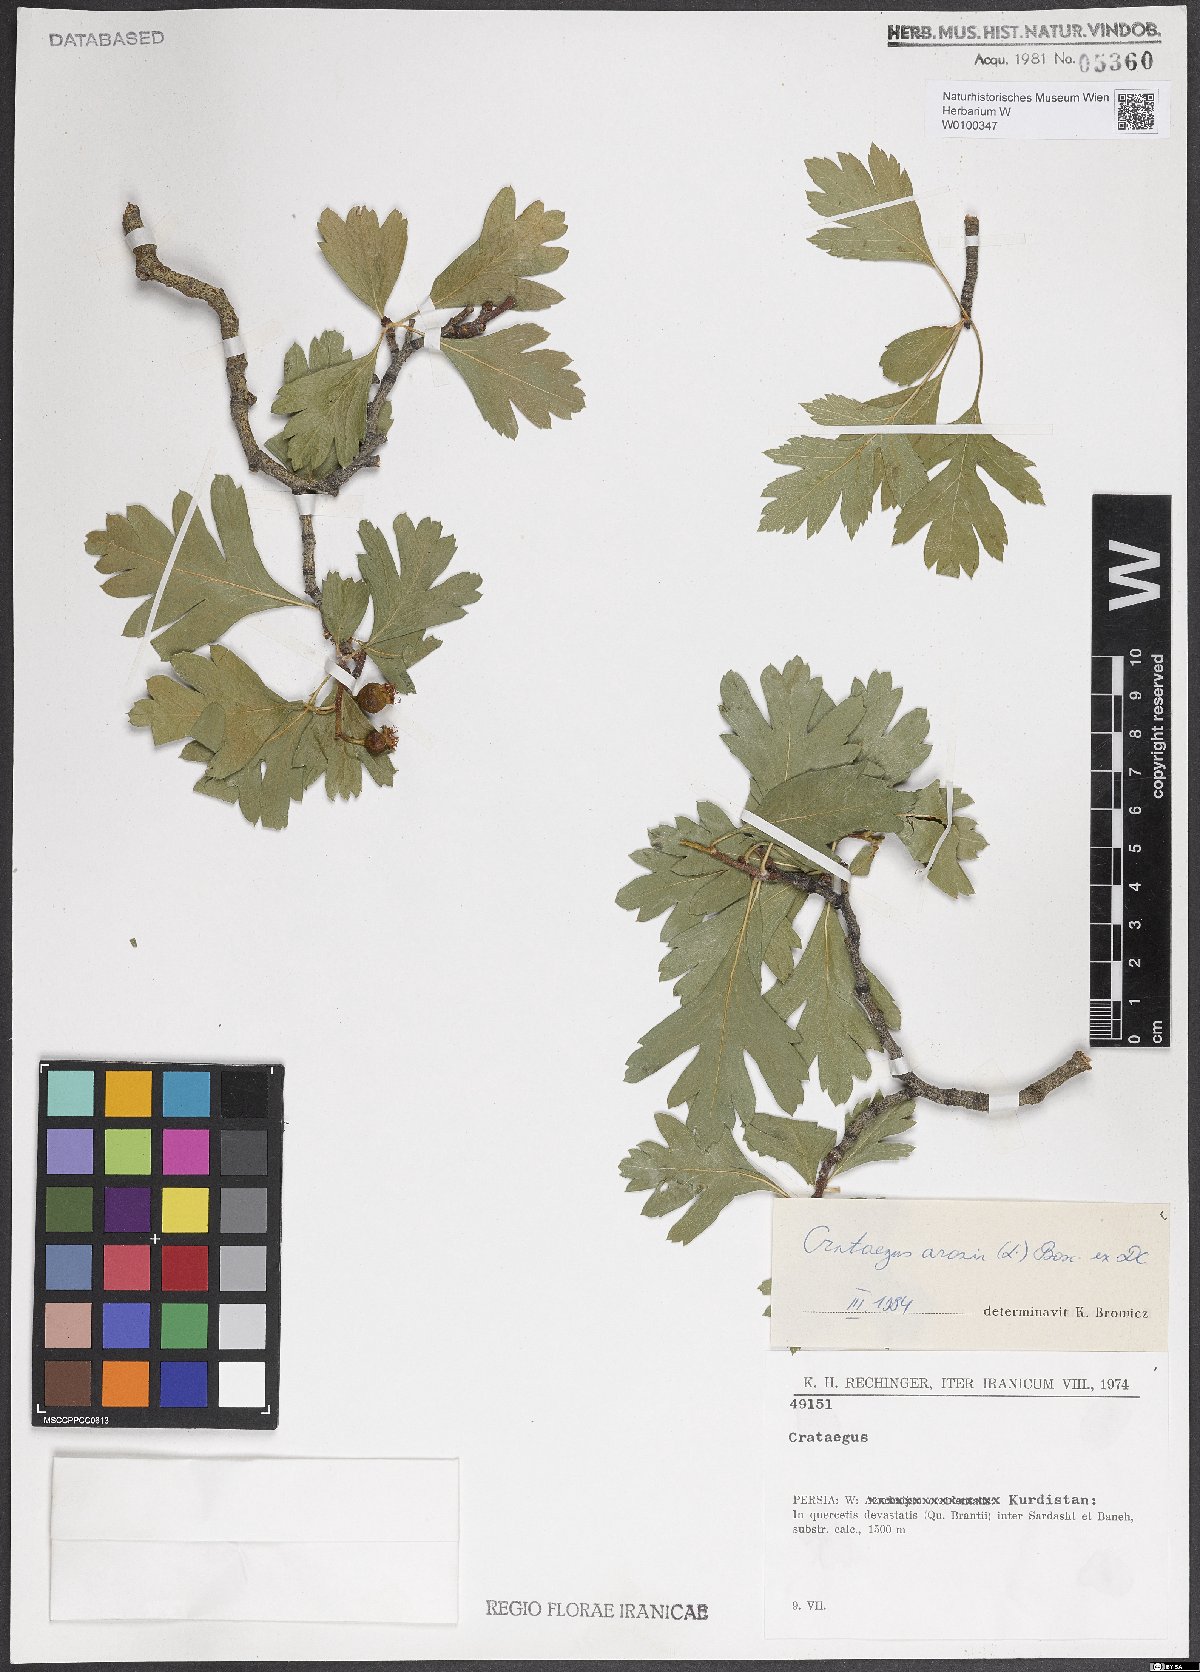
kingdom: Plantae
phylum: Tracheophyta
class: Magnoliopsida
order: Rosales
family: Rosaceae
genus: Crataegus
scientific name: Crataegus azarolus
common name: Azarole
